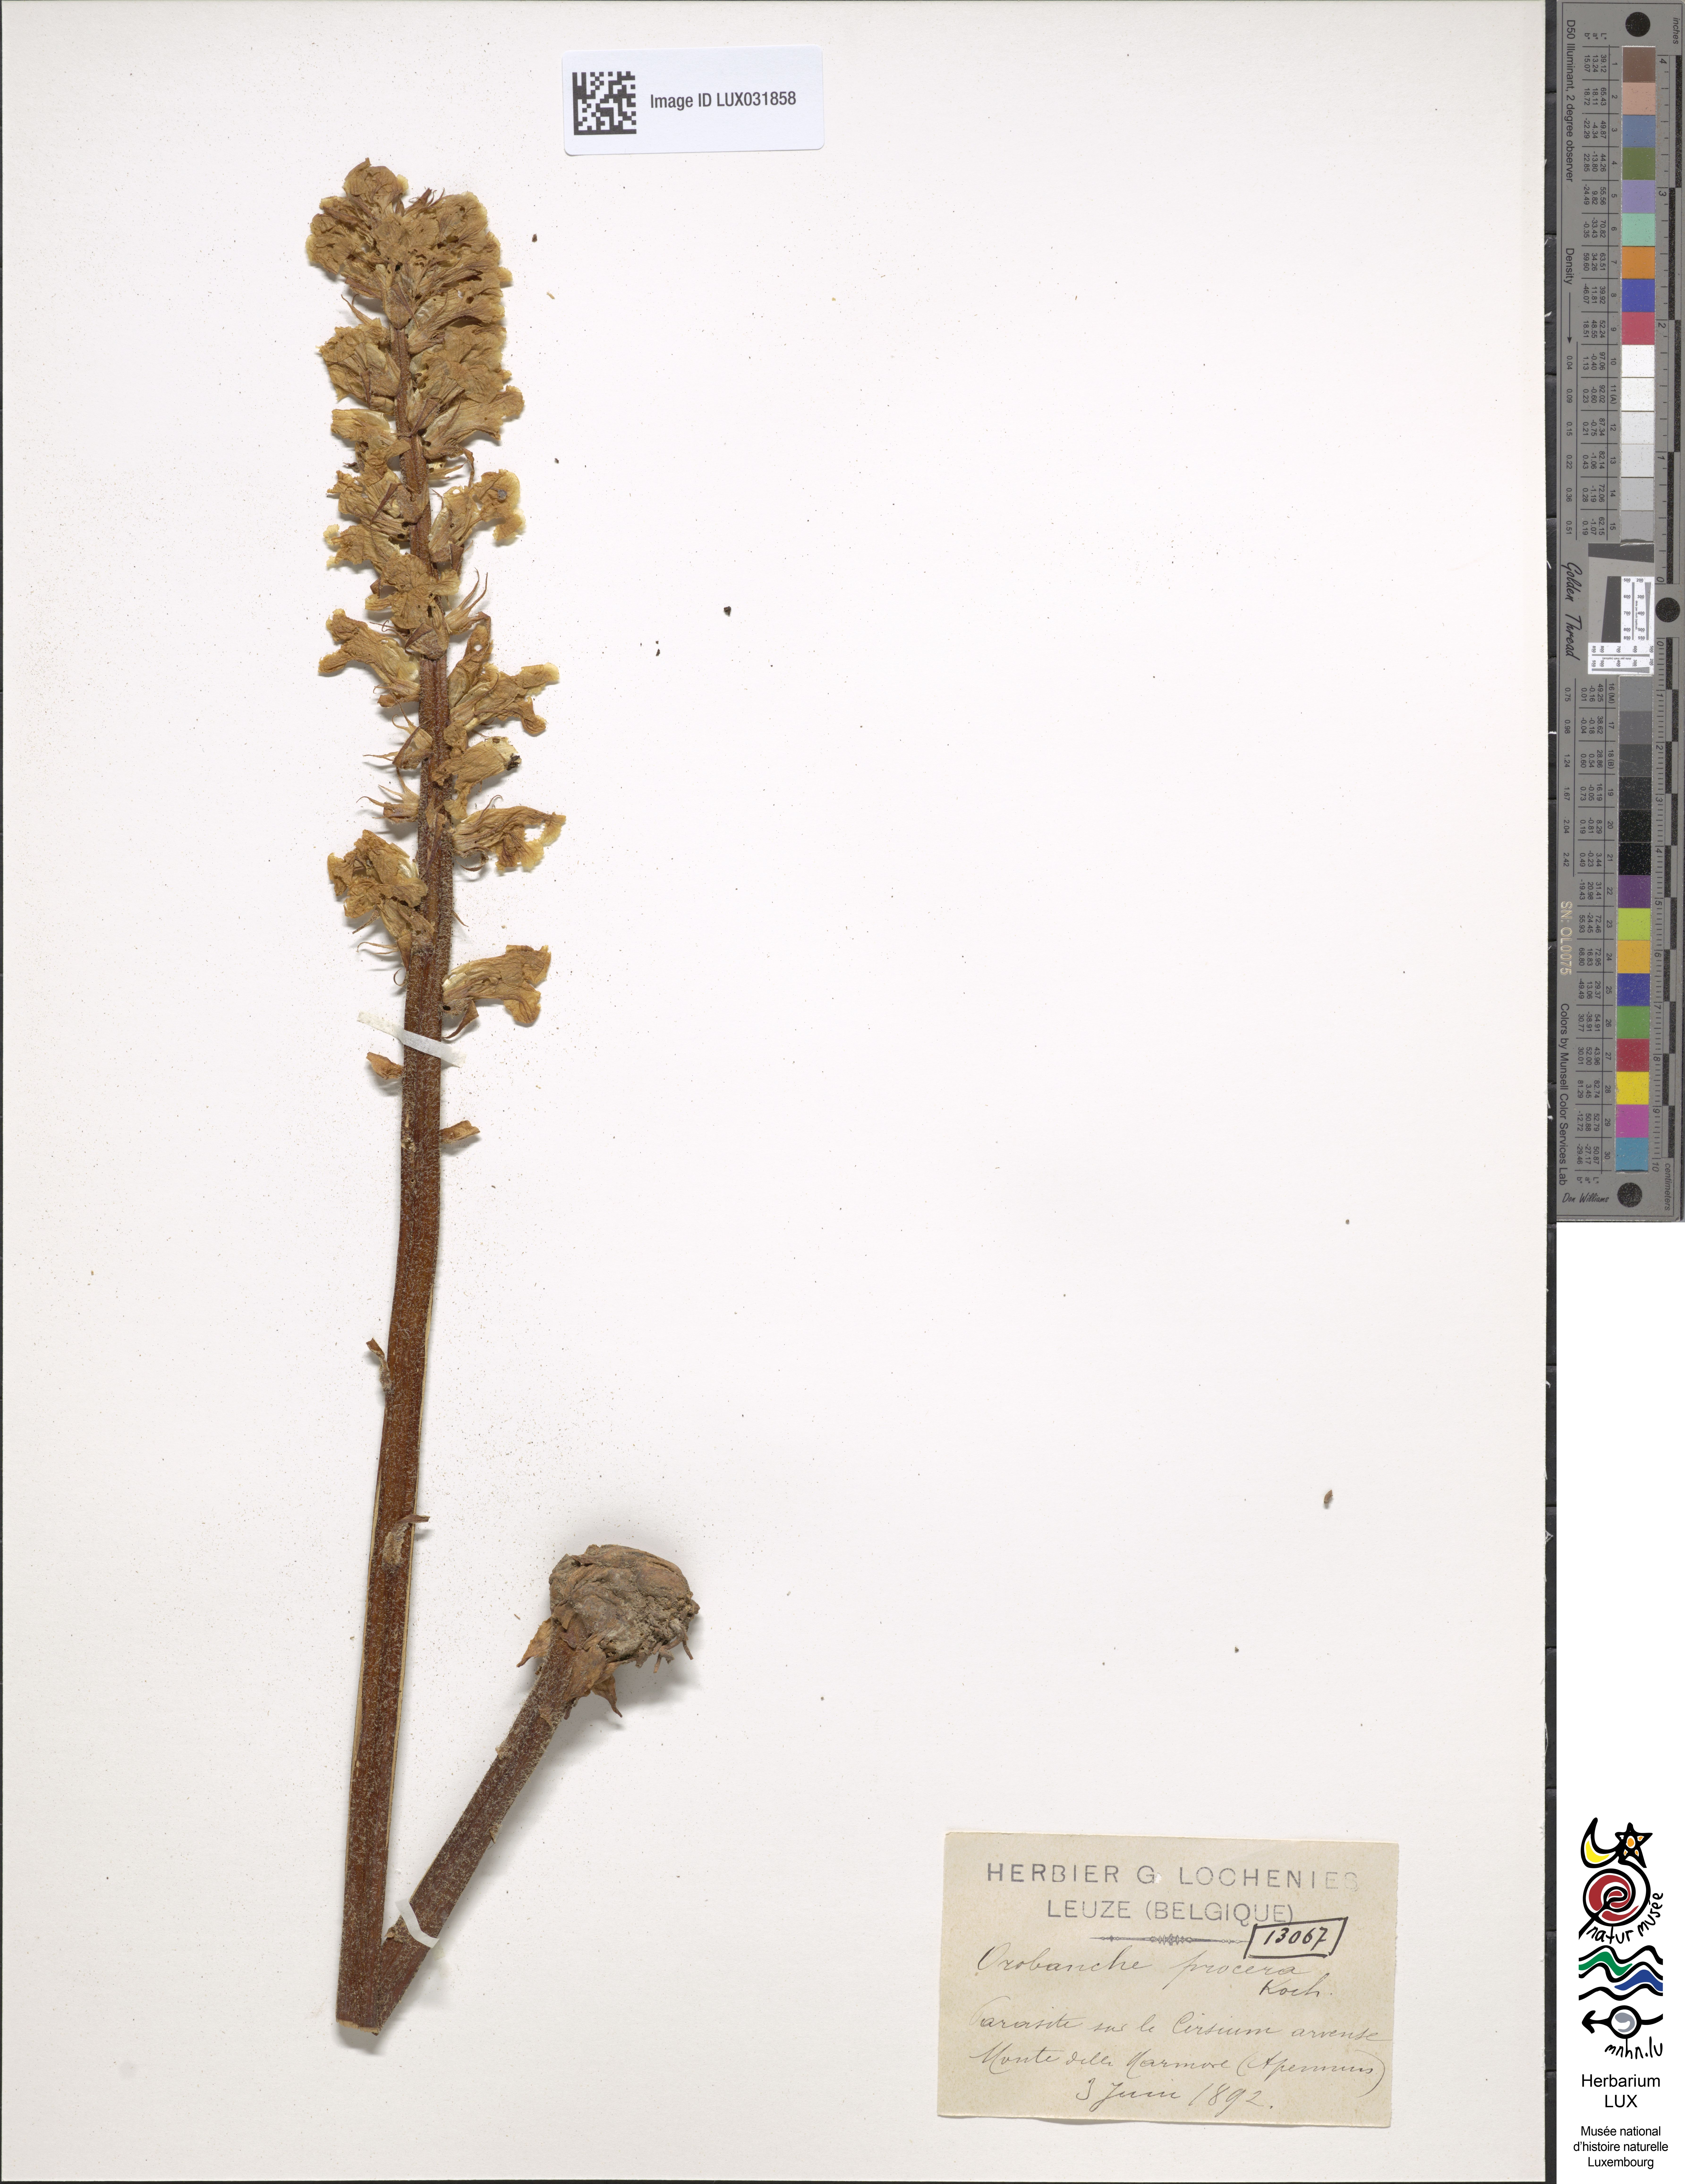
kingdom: Plantae
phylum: Tracheophyta
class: Magnoliopsida
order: Lamiales
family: Orobanchaceae
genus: Orobanche
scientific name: Orobanche reticulata
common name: Thistle broomrape
